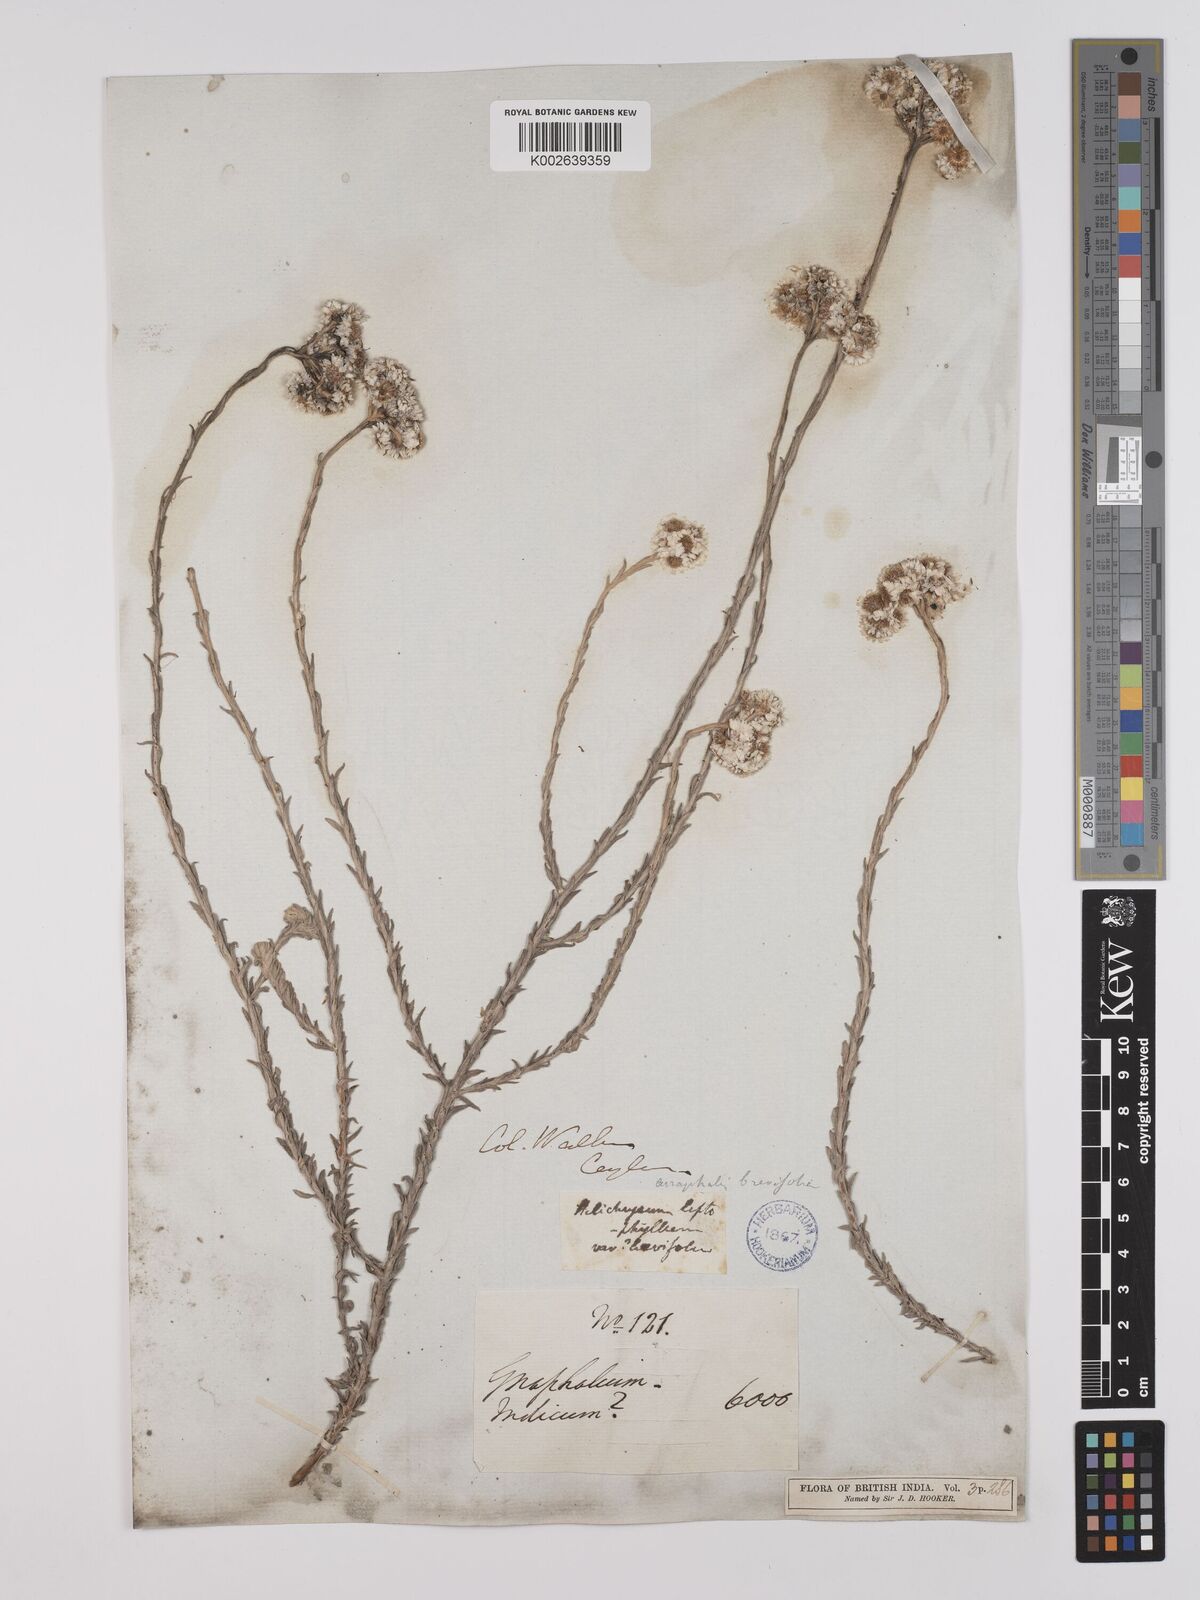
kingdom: Plantae
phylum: Tracheophyta
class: Magnoliopsida
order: Asterales
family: Asteraceae
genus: Anaphalis
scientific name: Anaphalis brevifolia
